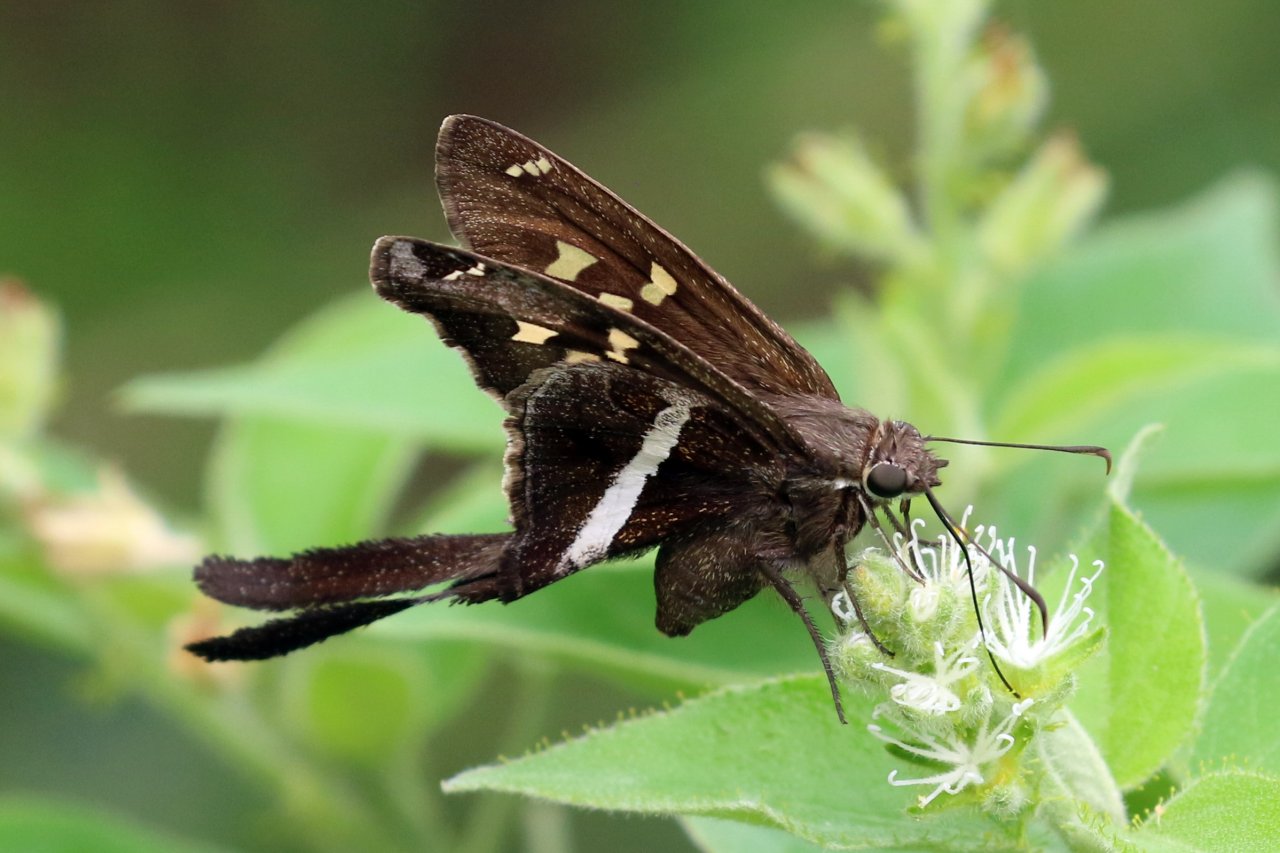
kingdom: Animalia
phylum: Arthropoda
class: Insecta
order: Lepidoptera
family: Hesperiidae
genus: Chioides
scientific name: Chioides catillus
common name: White-striped Longtail
